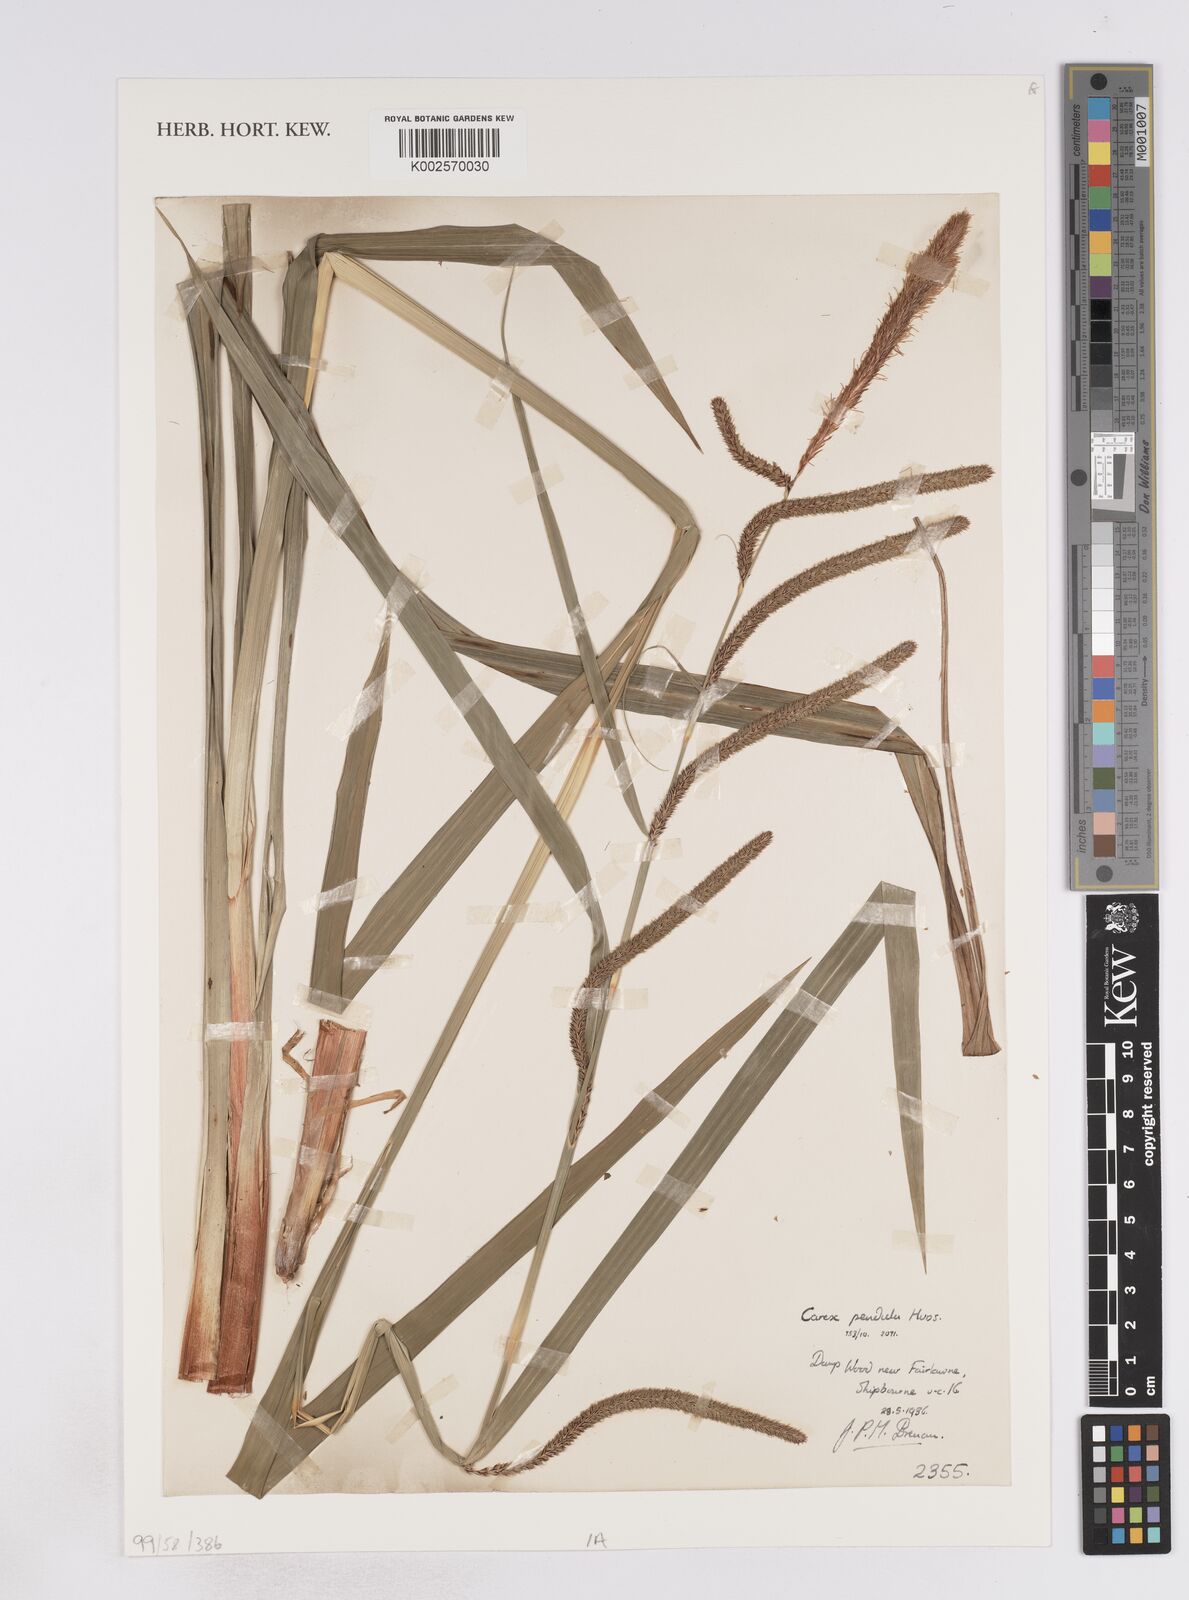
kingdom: Plantae
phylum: Tracheophyta
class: Liliopsida
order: Poales
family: Cyperaceae
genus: Carex
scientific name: Carex pendula
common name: Pendulous sedge
